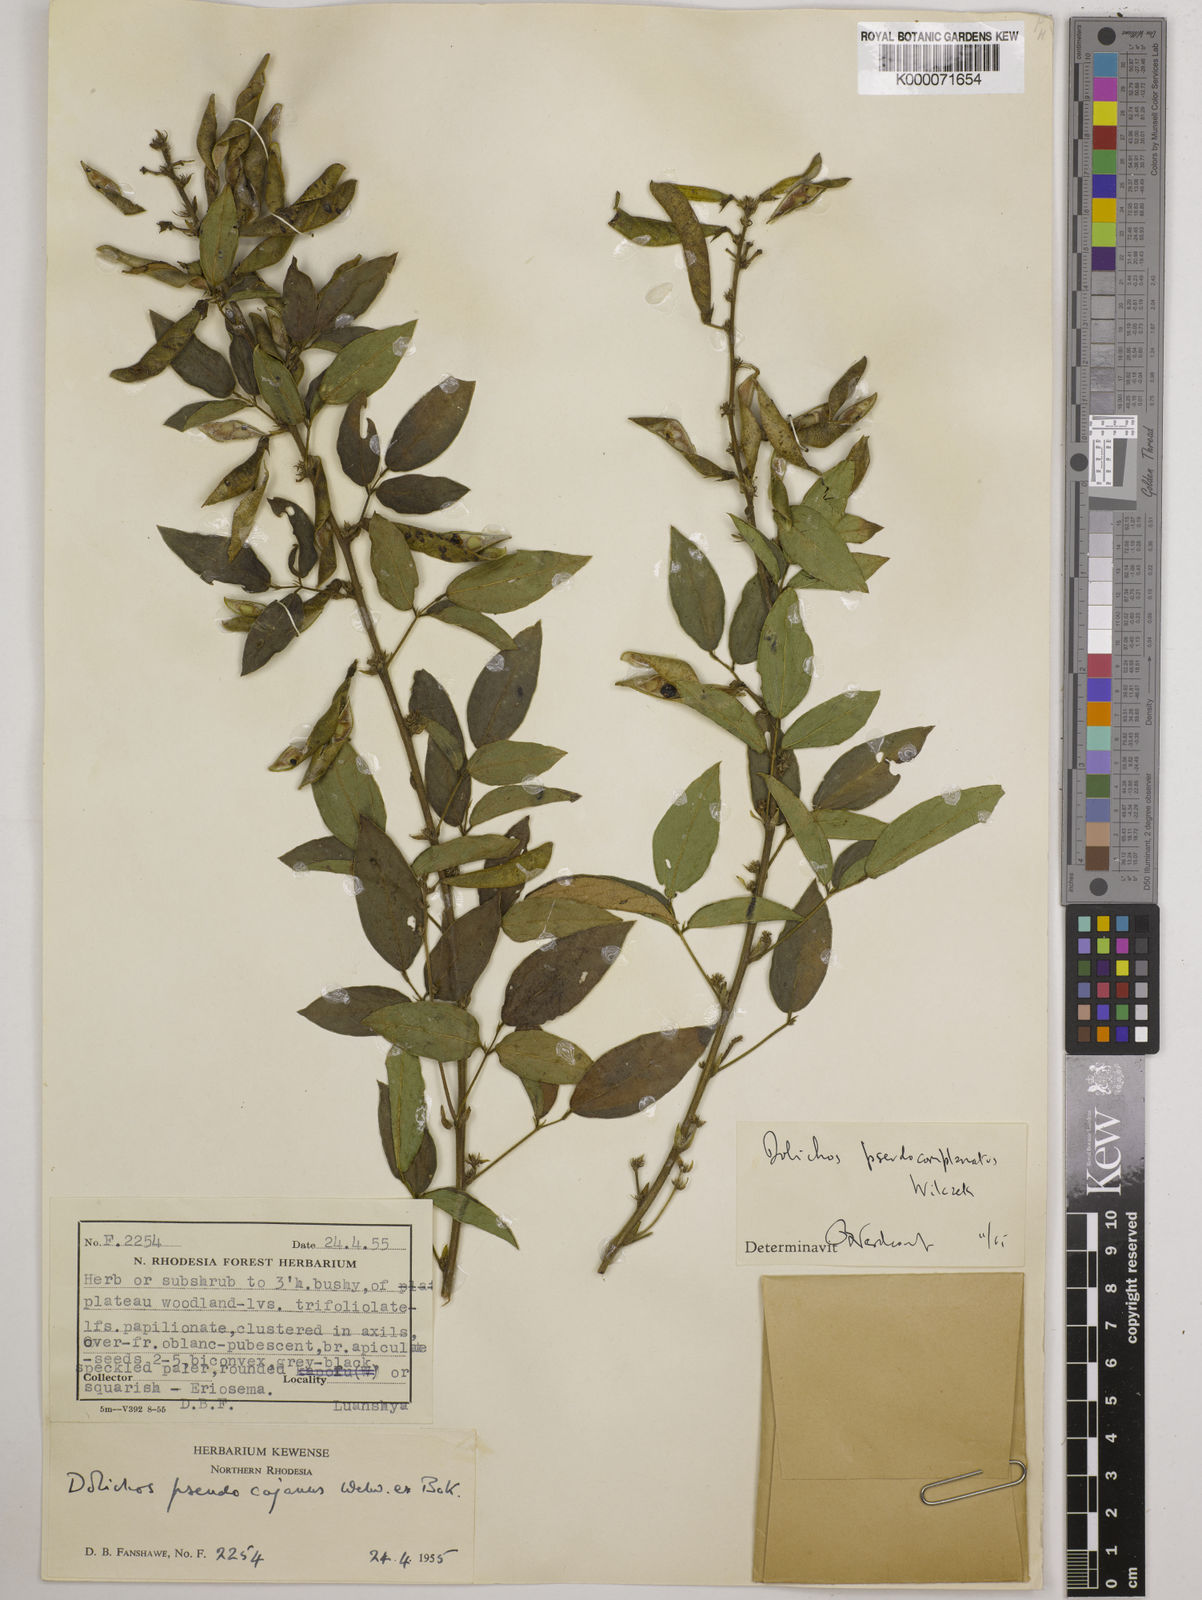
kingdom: Plantae
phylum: Tracheophyta
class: Magnoliopsida
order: Fabales
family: Fabaceae
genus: Dolichos
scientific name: Dolichos
